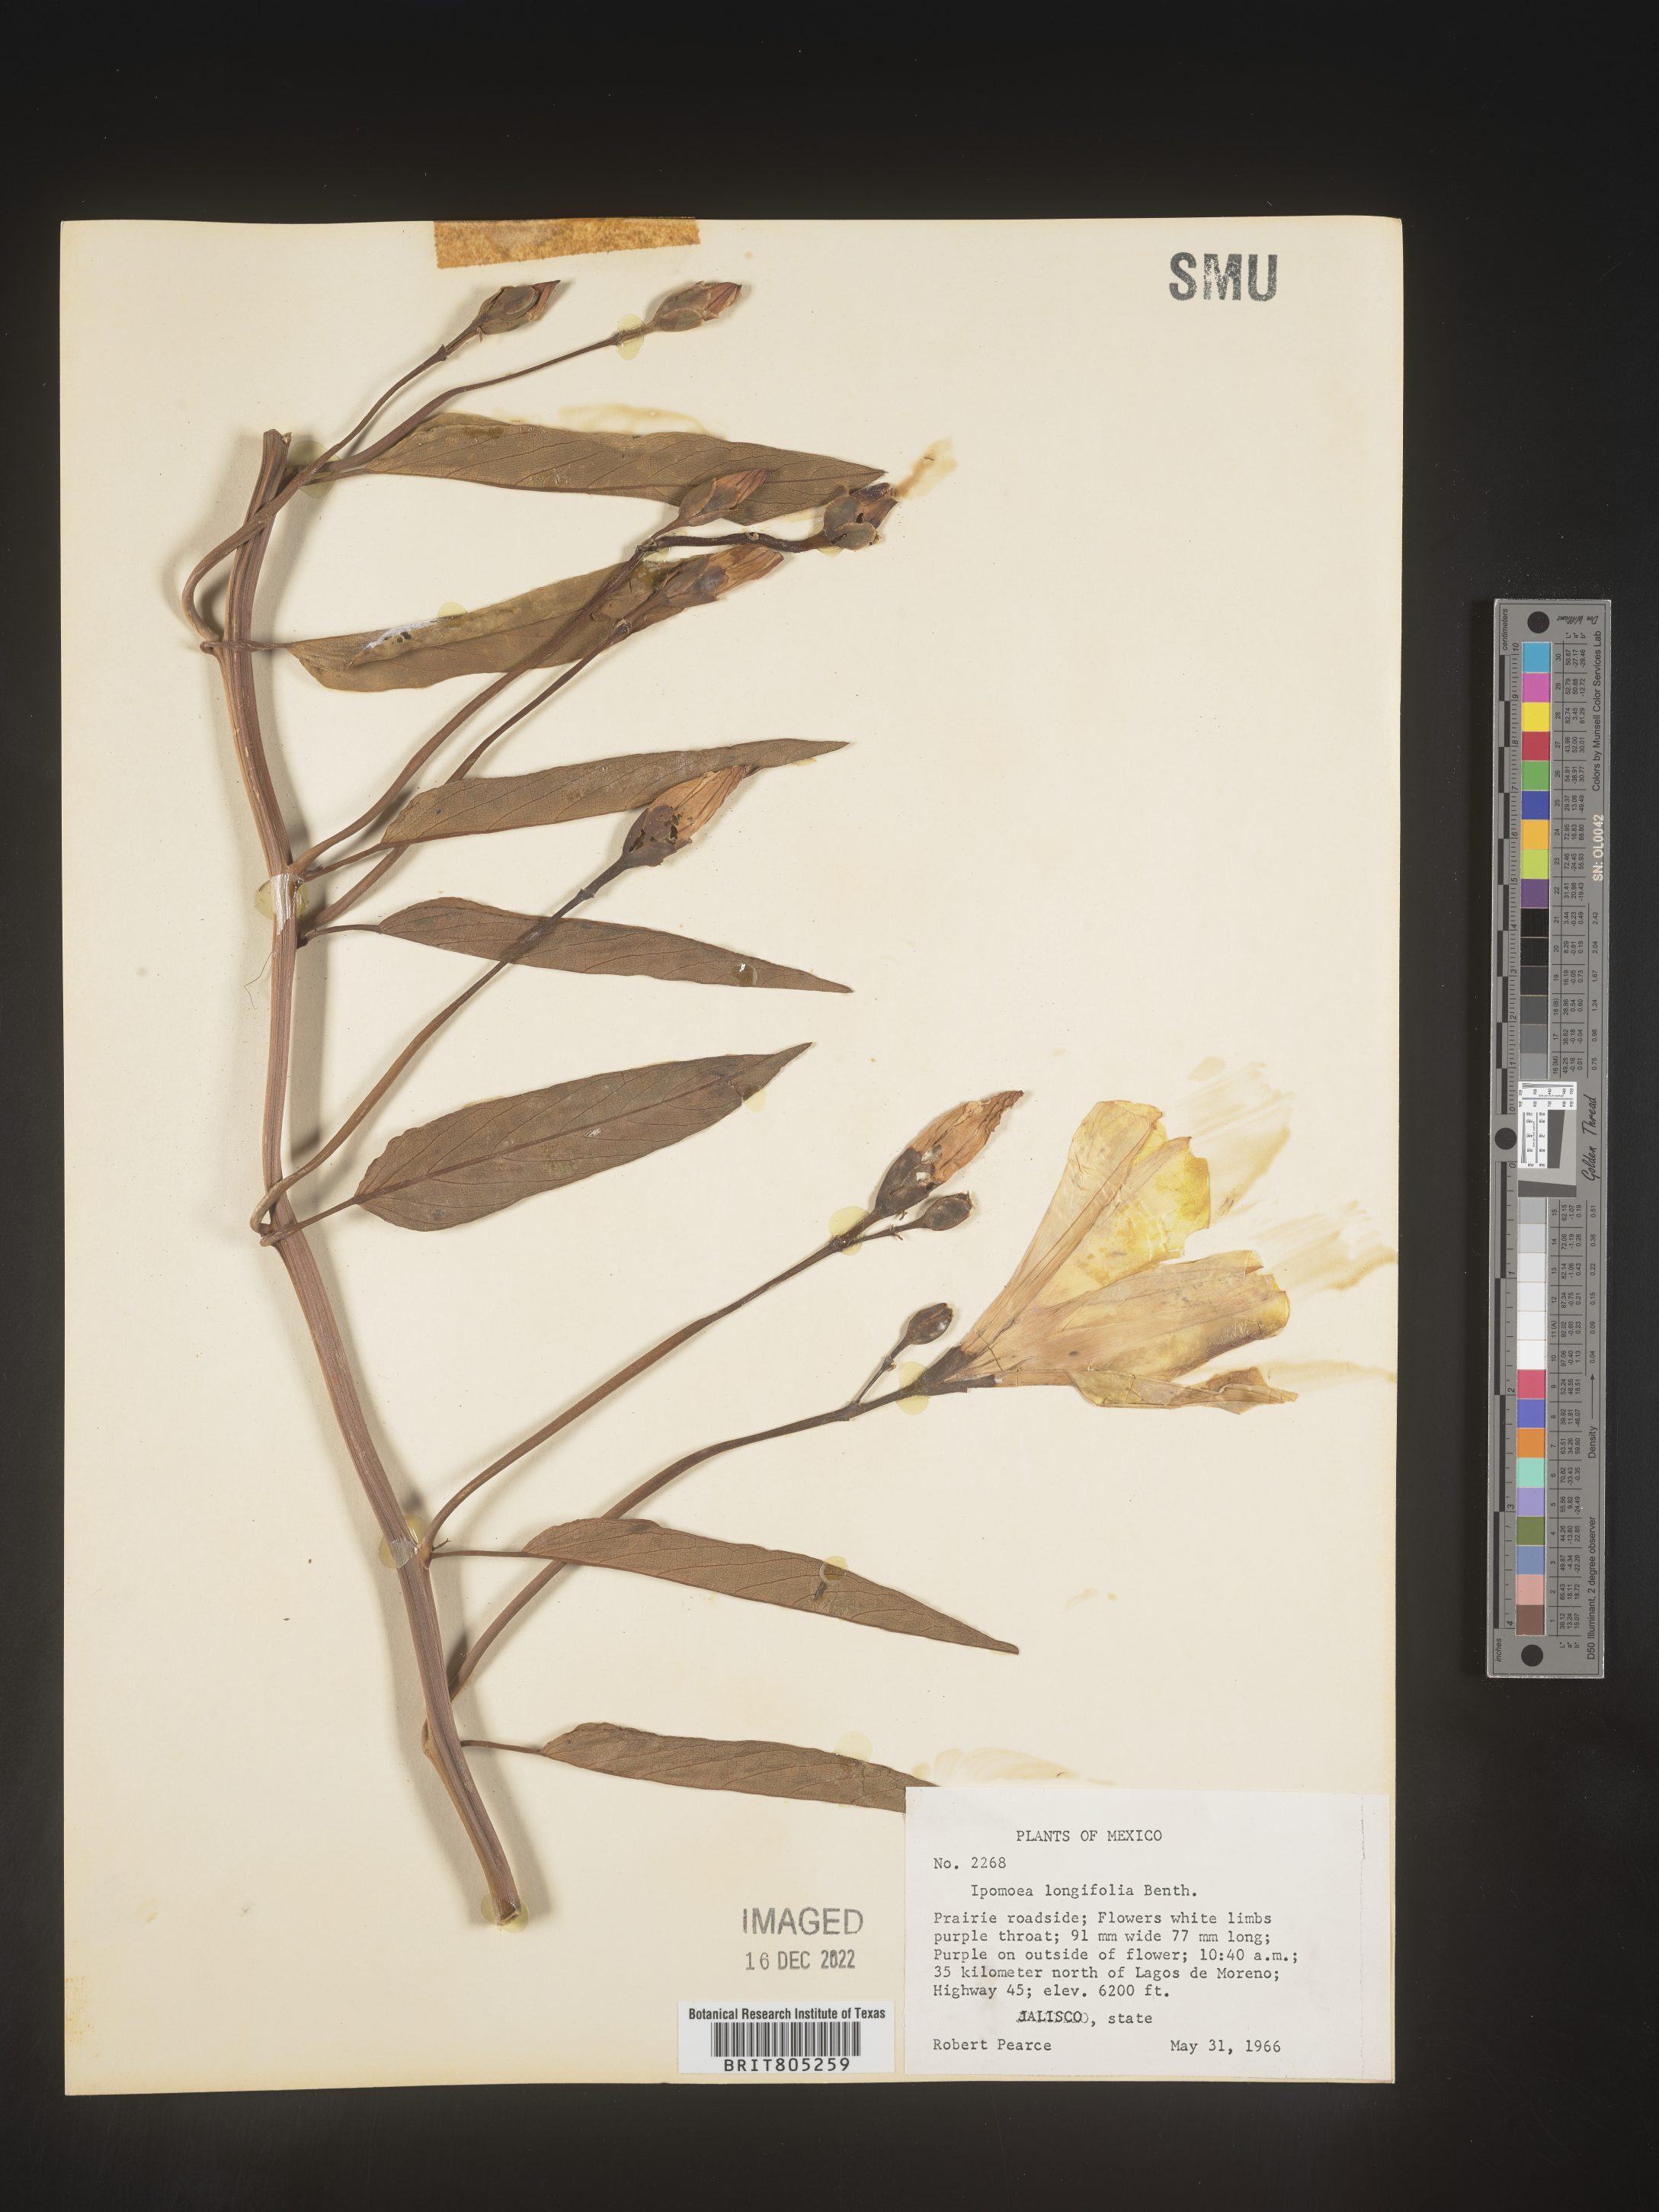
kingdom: Plantae
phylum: Tracheophyta
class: Magnoliopsida
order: Solanales
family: Convolvulaceae
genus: Ipomoea
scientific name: Ipomoea
